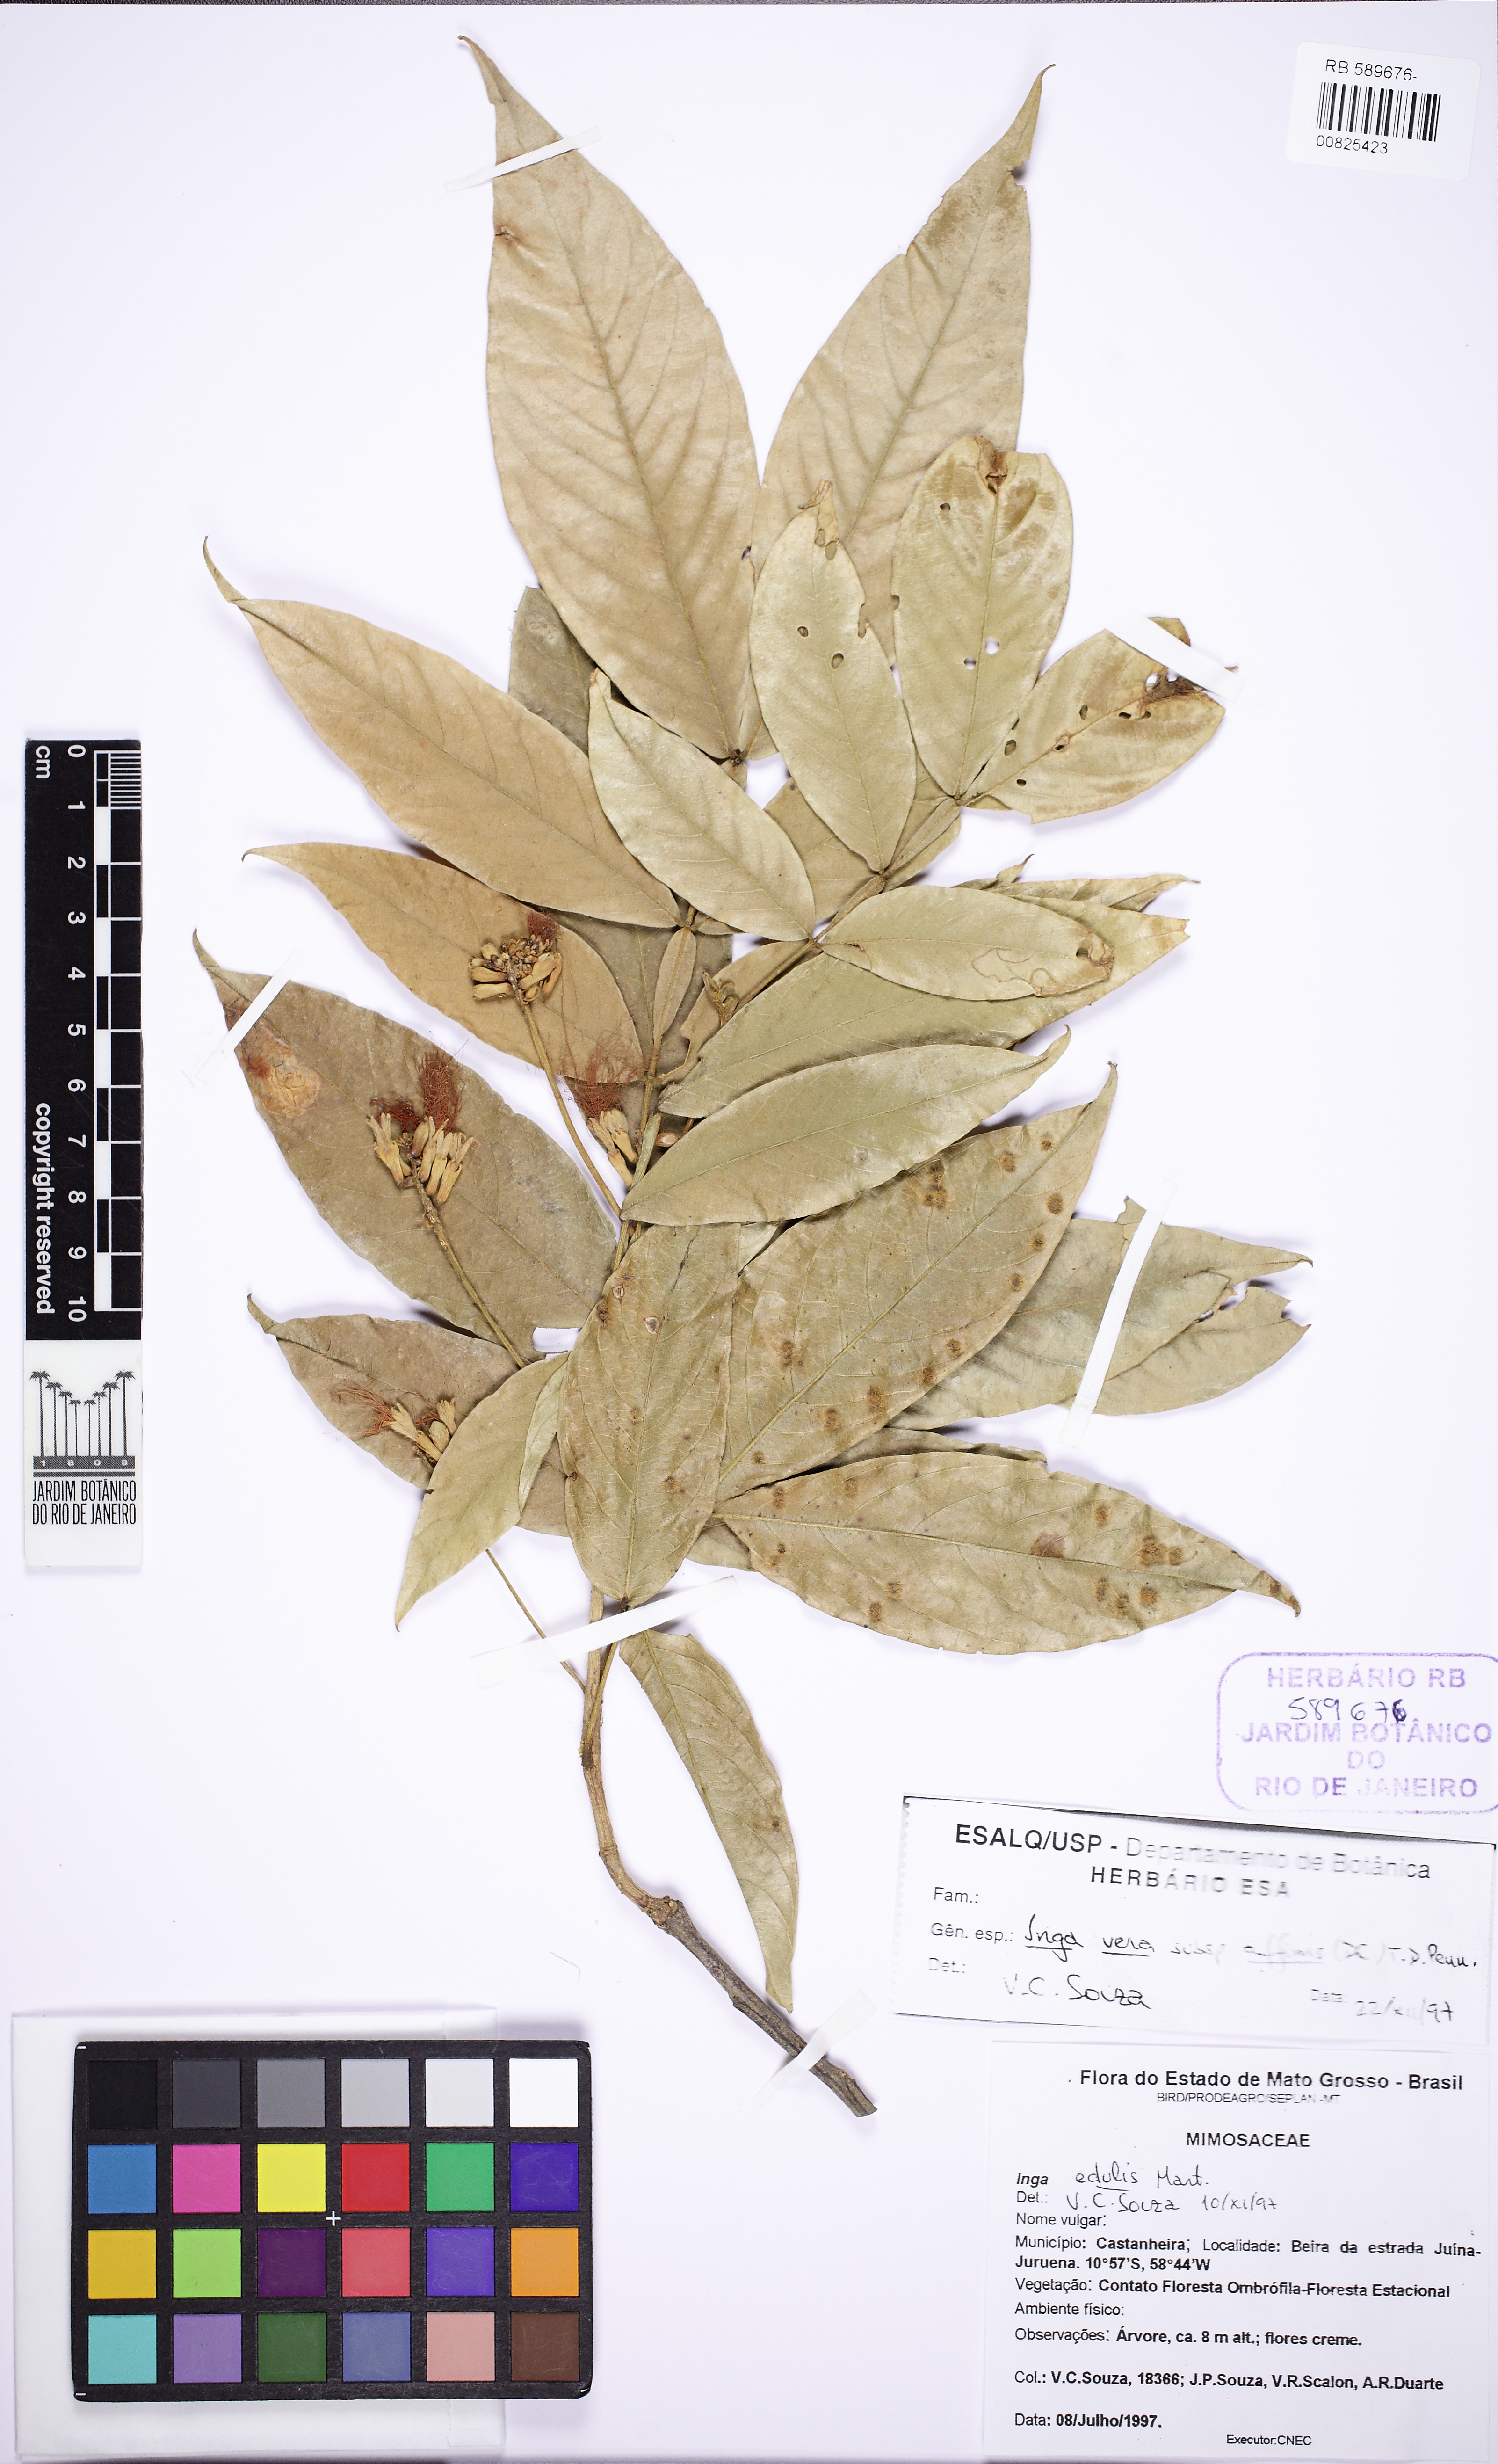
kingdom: Plantae
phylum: Tracheophyta
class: Magnoliopsida
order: Fabales
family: Fabaceae
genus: Inga
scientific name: Inga affinis
